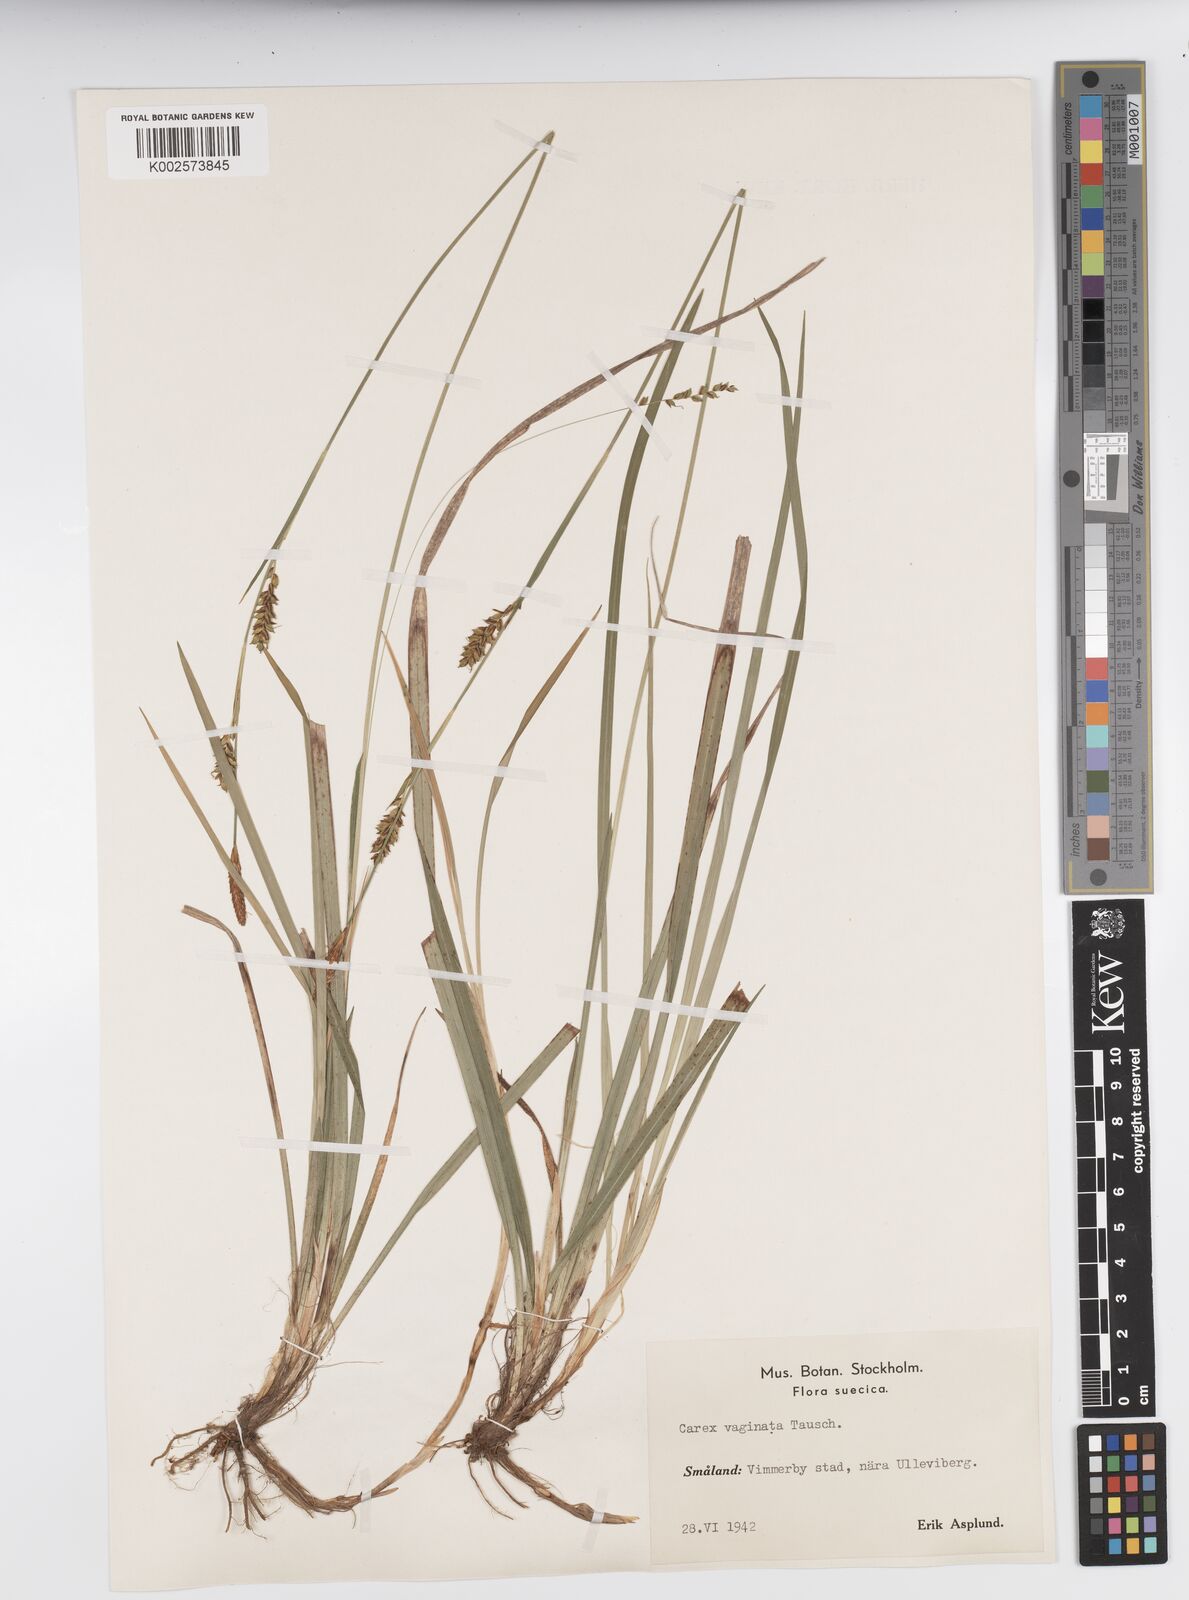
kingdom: Plantae
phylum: Tracheophyta
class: Liliopsida
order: Poales
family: Cyperaceae
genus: Carex
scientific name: Carex vaginata
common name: Sheathed sedge
